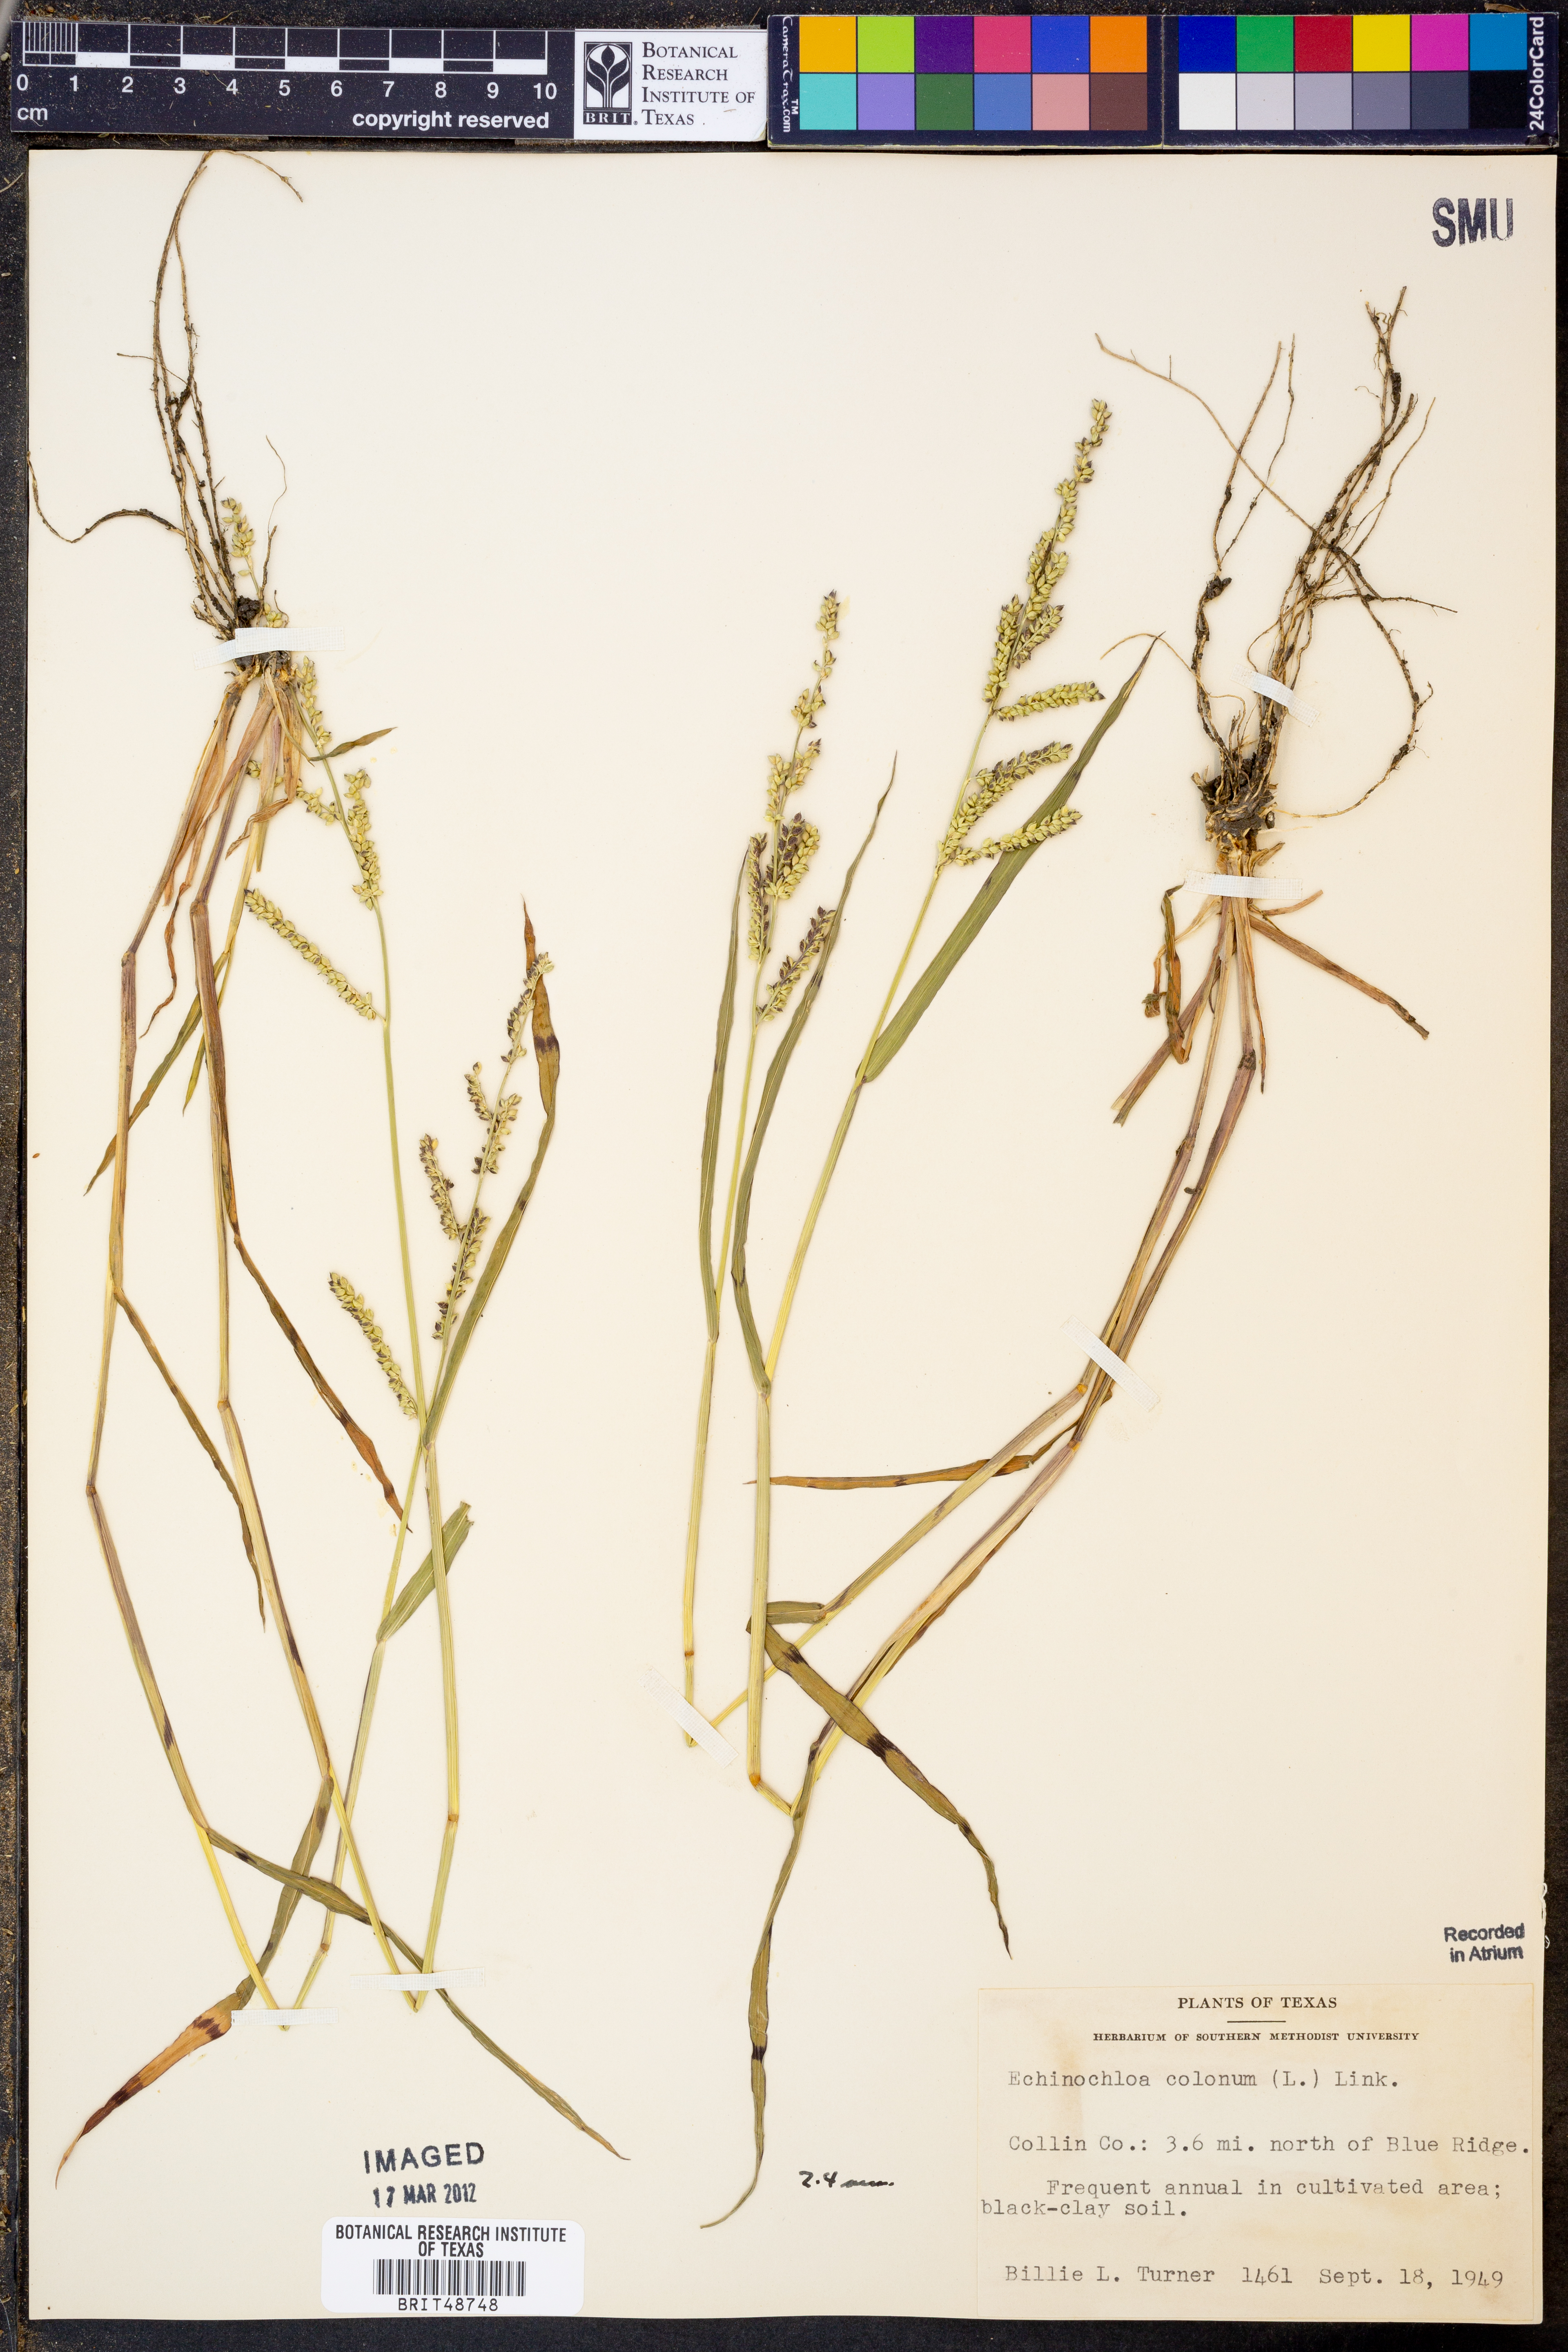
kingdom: Plantae
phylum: Tracheophyta
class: Liliopsida
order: Poales
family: Poaceae
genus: Echinochloa
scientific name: Echinochloa colonum
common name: Jungle rice
